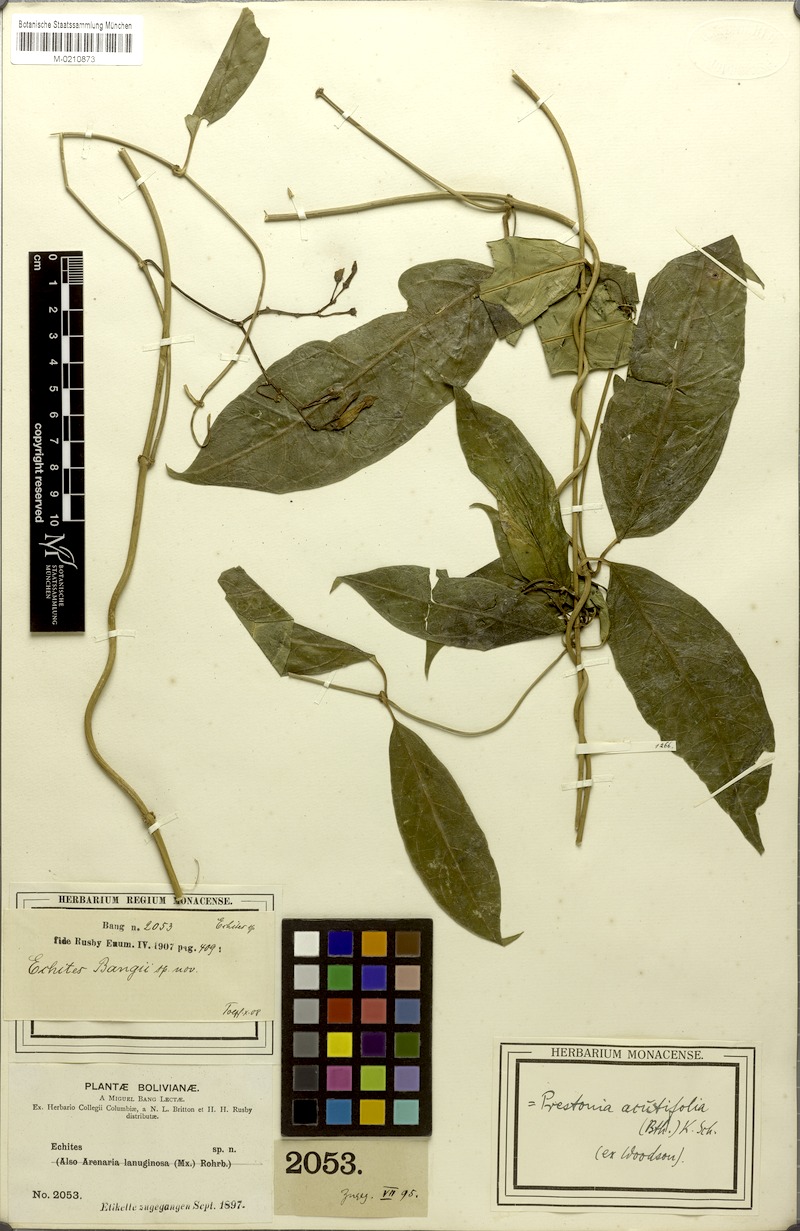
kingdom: Plantae
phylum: Tracheophyta
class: Magnoliopsida
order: Gentianales
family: Apocynaceae
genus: Prestonia
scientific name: Prestonia quinquangularis
